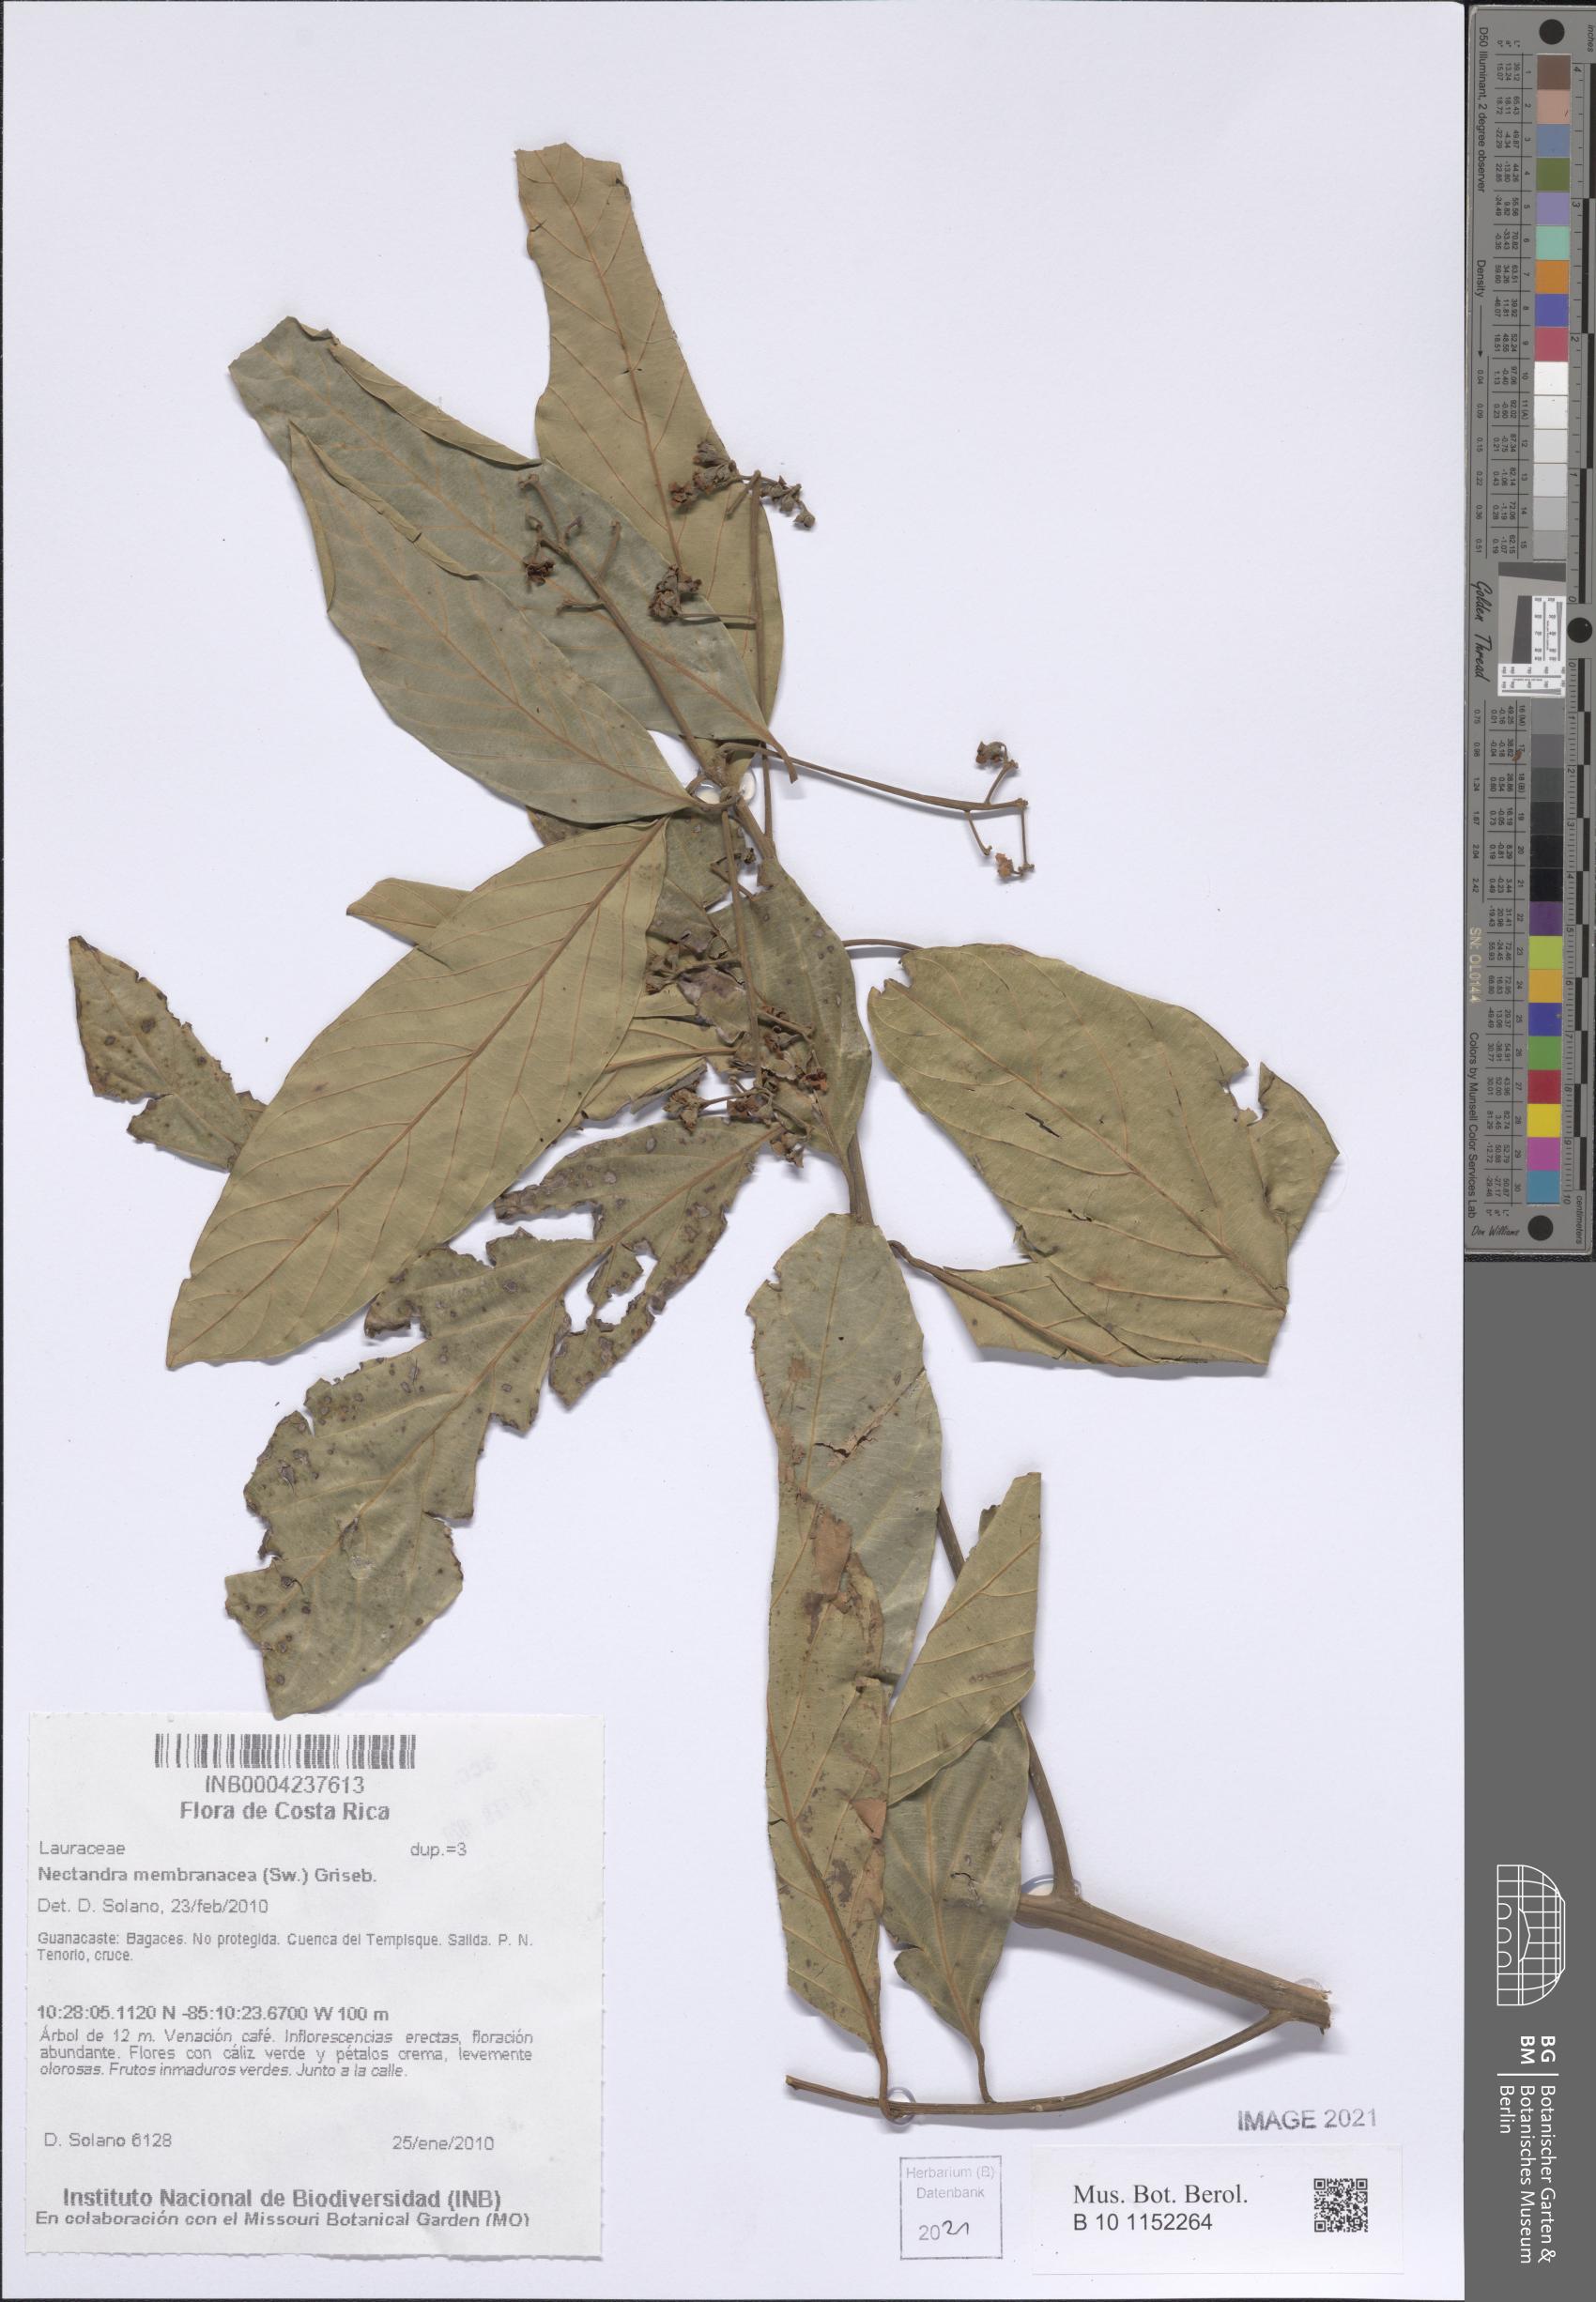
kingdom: Plantae
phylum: Tracheophyta
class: Magnoliopsida
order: Laurales
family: Lauraceae
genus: Nectandra
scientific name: Nectandra membranacea
